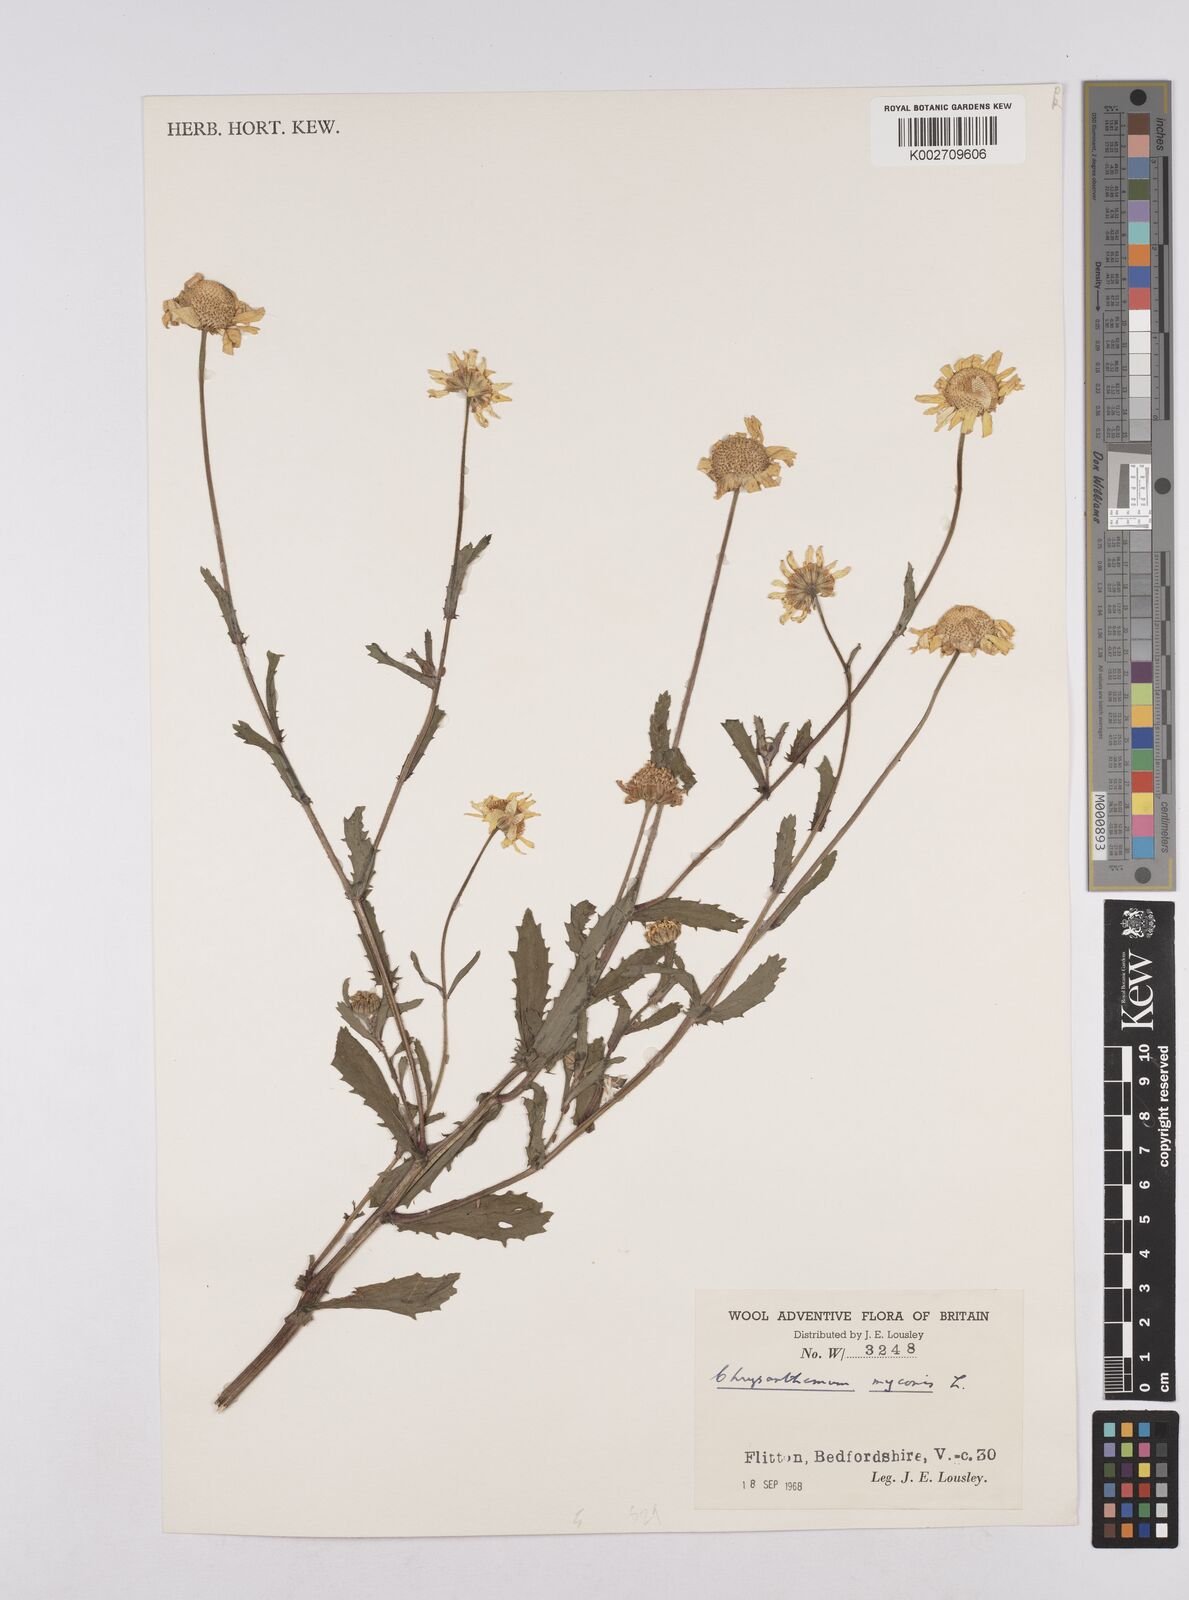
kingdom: Plantae
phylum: Tracheophyta
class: Magnoliopsida
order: Asterales
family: Asteraceae
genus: Coleostephus
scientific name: Coleostephus myconis
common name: Mediterranean marigold
